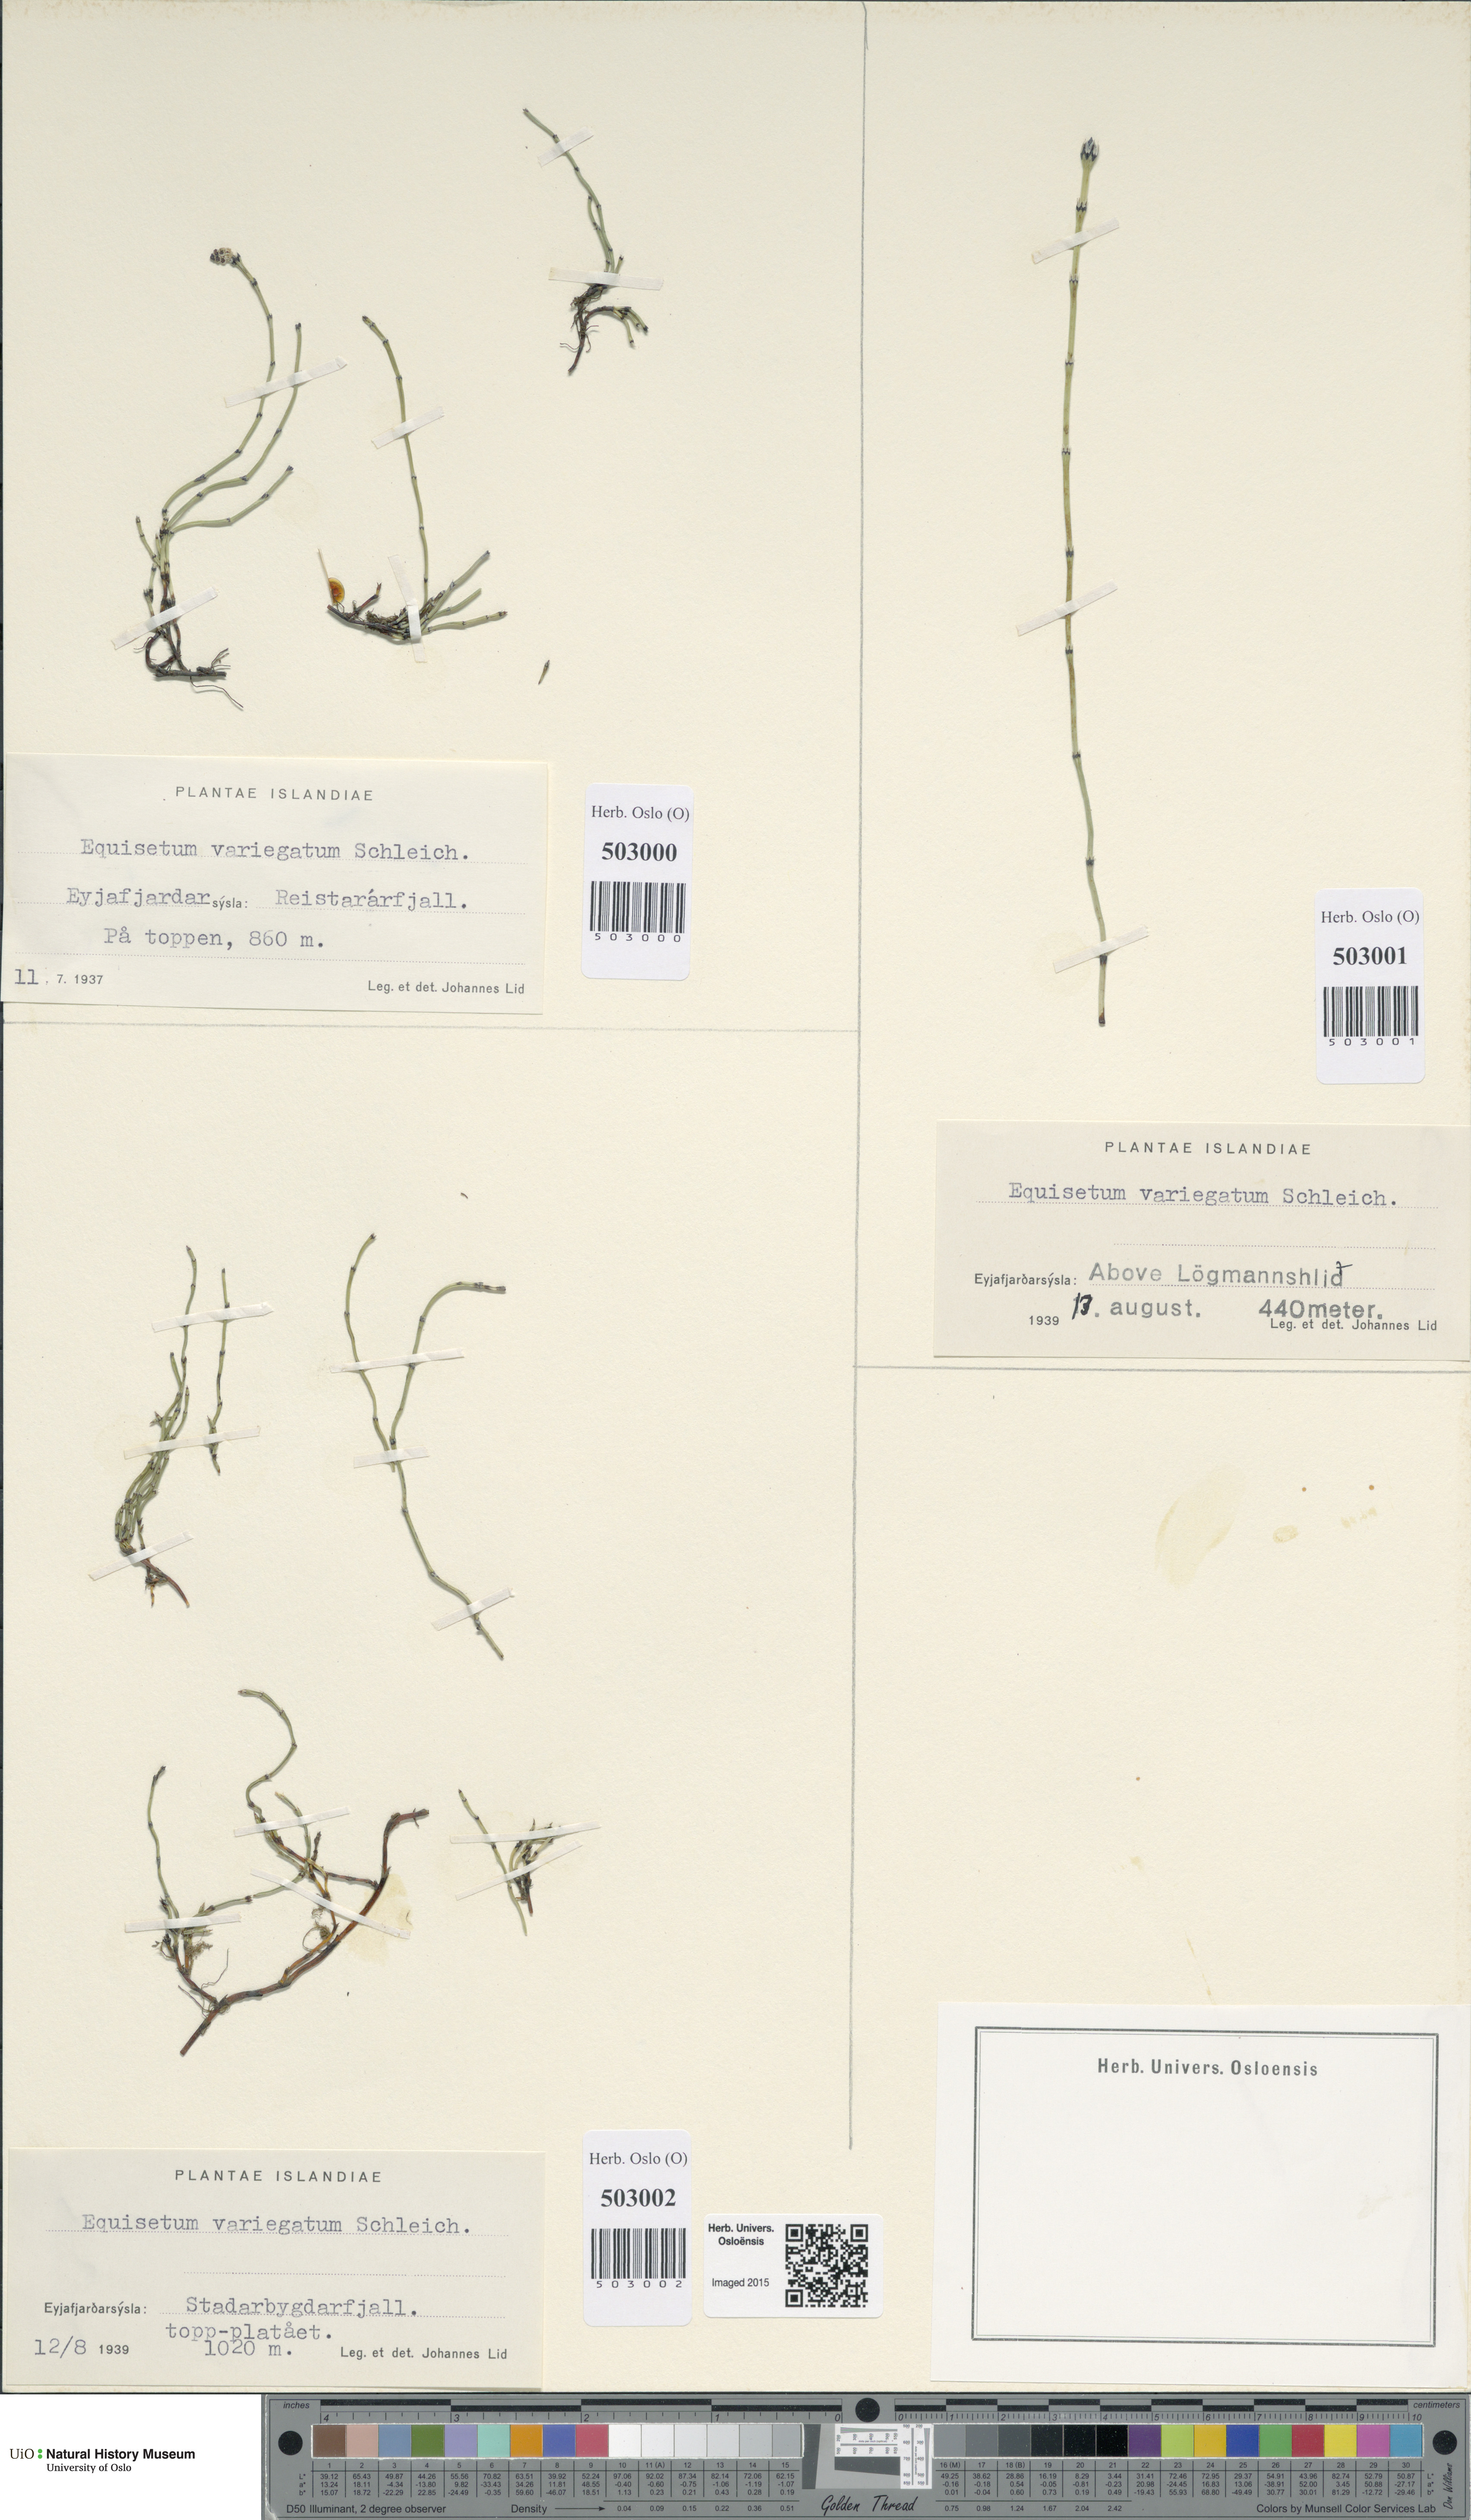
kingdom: Plantae
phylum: Tracheophyta
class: Polypodiopsida
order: Equisetales
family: Equisetaceae
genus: Equisetum
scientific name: Equisetum variegatum
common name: Variegated horsetail
